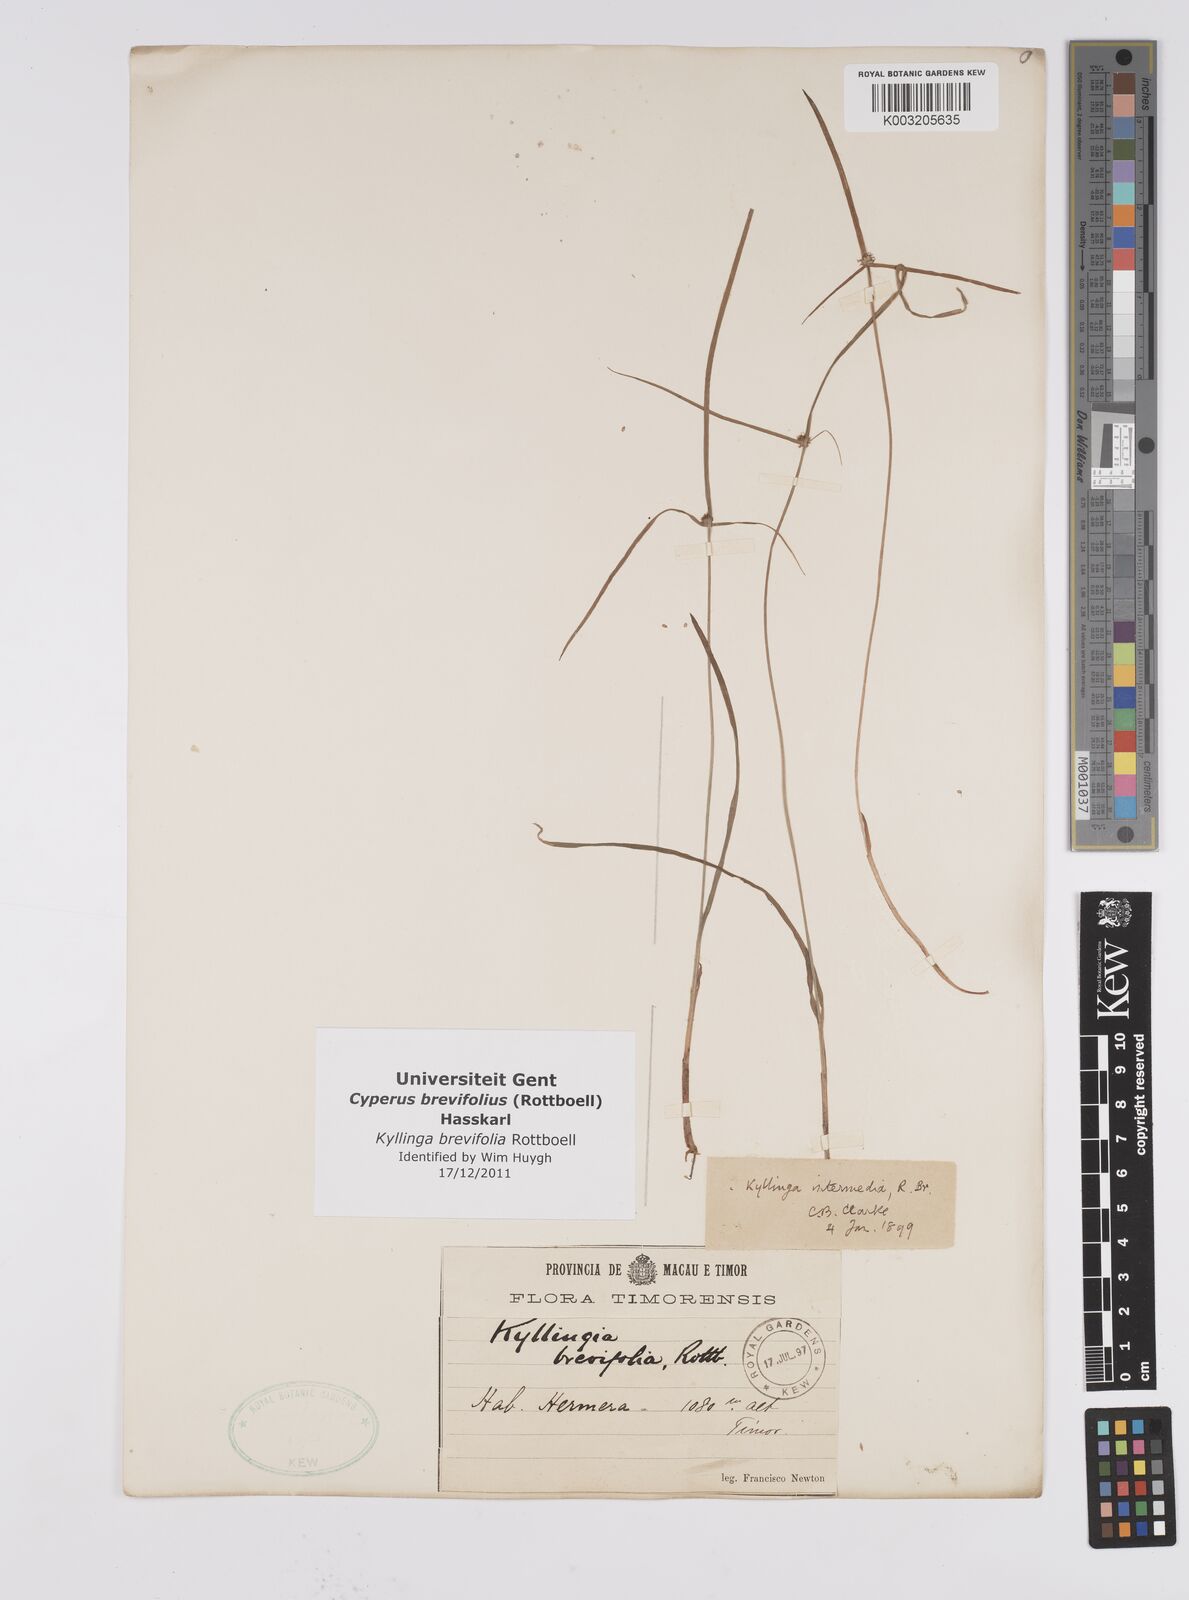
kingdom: Plantae
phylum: Tracheophyta
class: Liliopsida
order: Poales
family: Cyperaceae
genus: Cyperus
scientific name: Cyperus brevifolius
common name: Globe kyllinga
